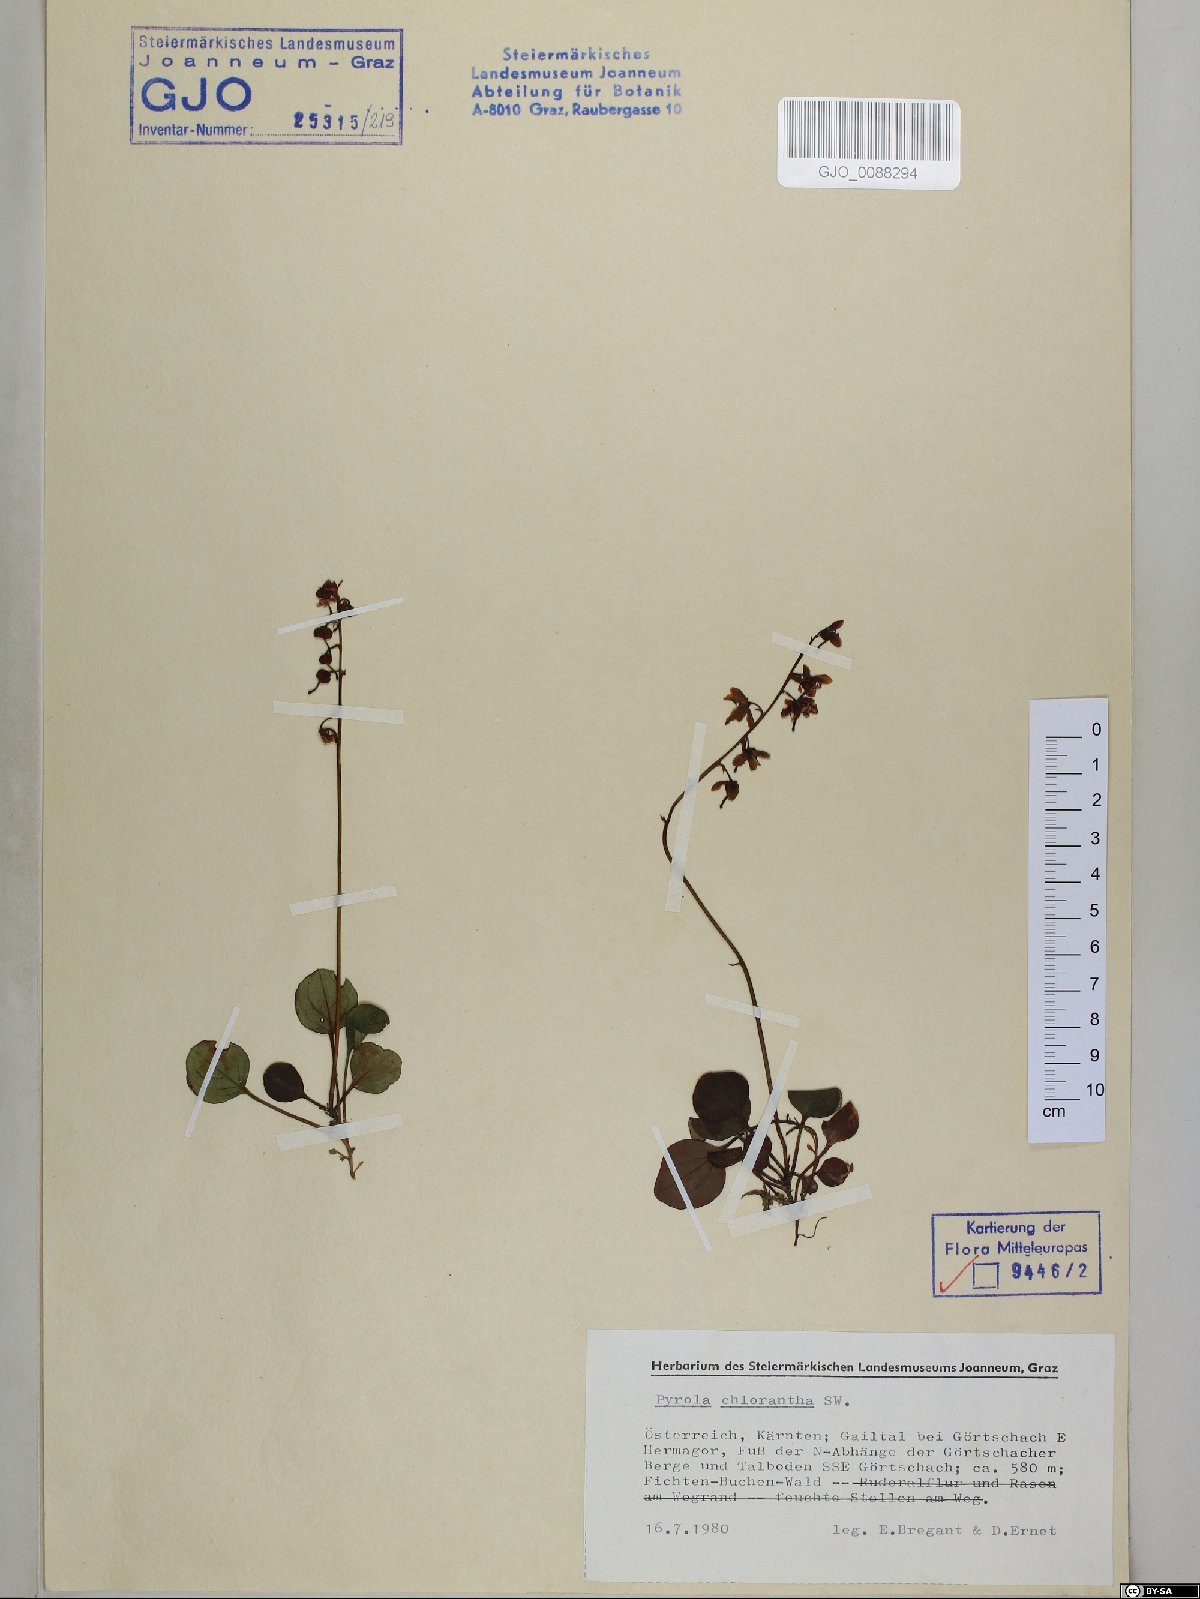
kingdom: Plantae
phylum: Tracheophyta
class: Magnoliopsida
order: Ericales
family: Ericaceae
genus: Pyrola
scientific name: Pyrola chlorantha
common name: Green wintergreen
